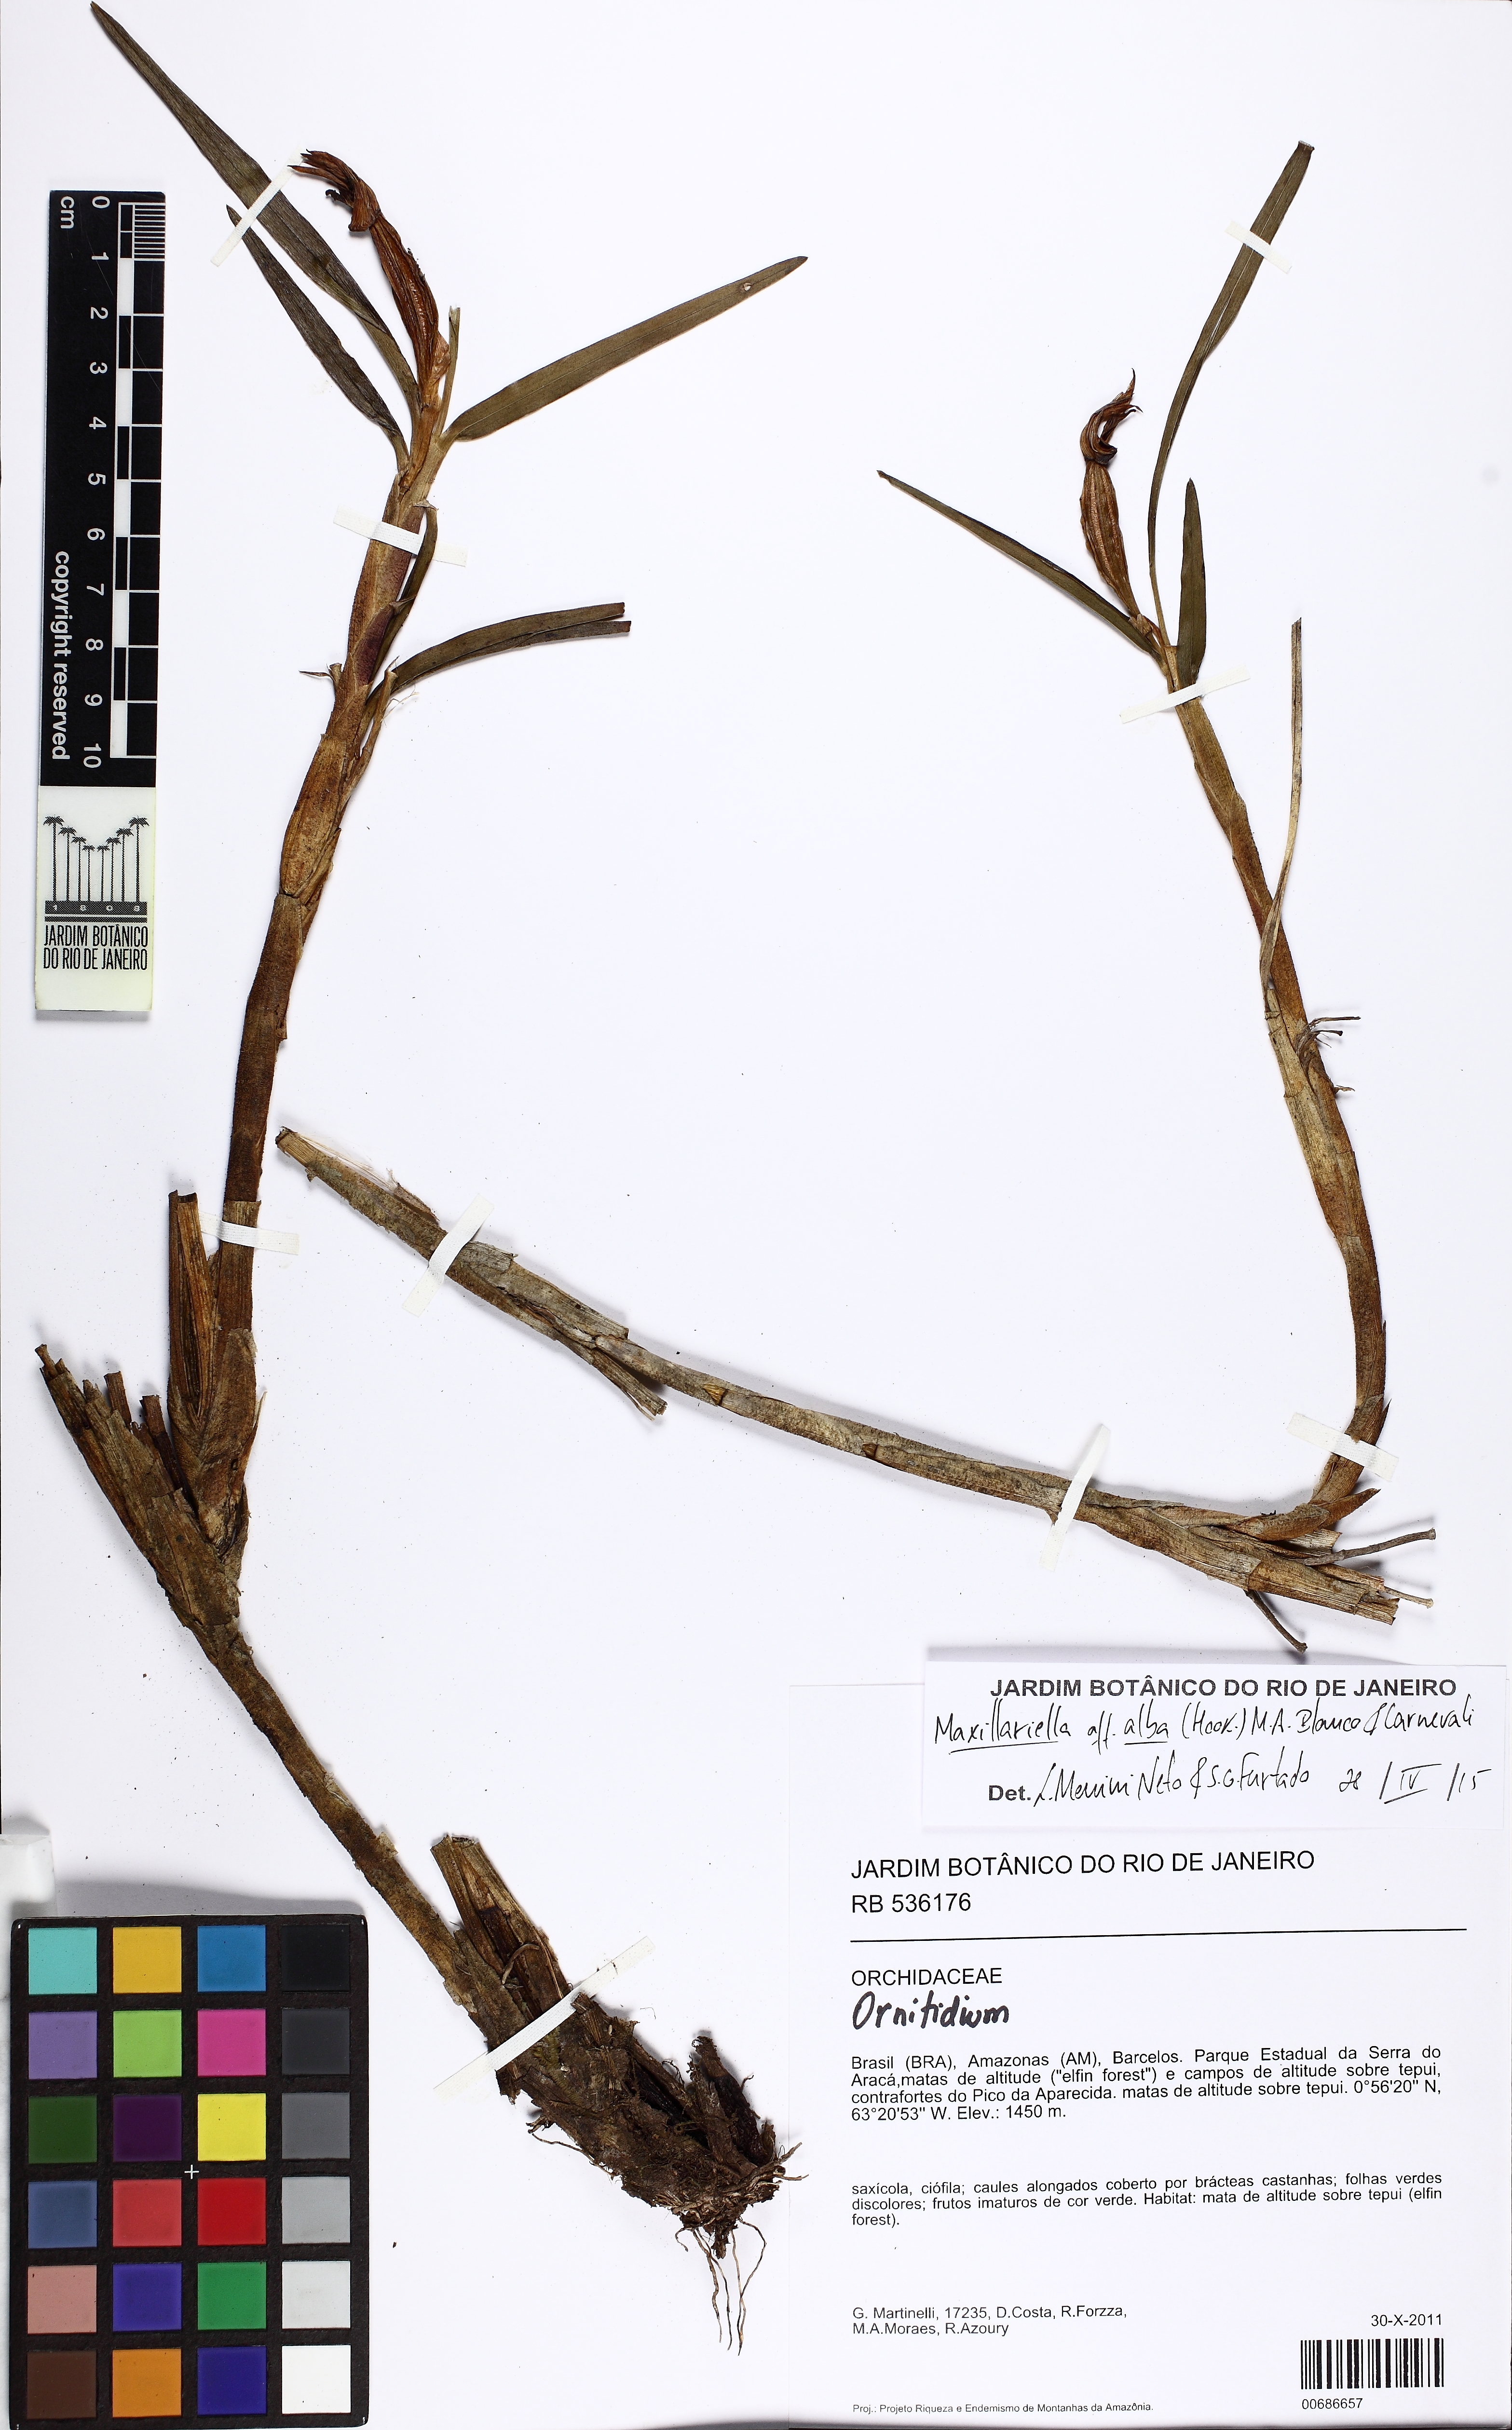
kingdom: Plantae
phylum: Tracheophyta
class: Liliopsida
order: Asparagales
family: Orchidaceae
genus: Maxillaria
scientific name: Maxillaria alba
